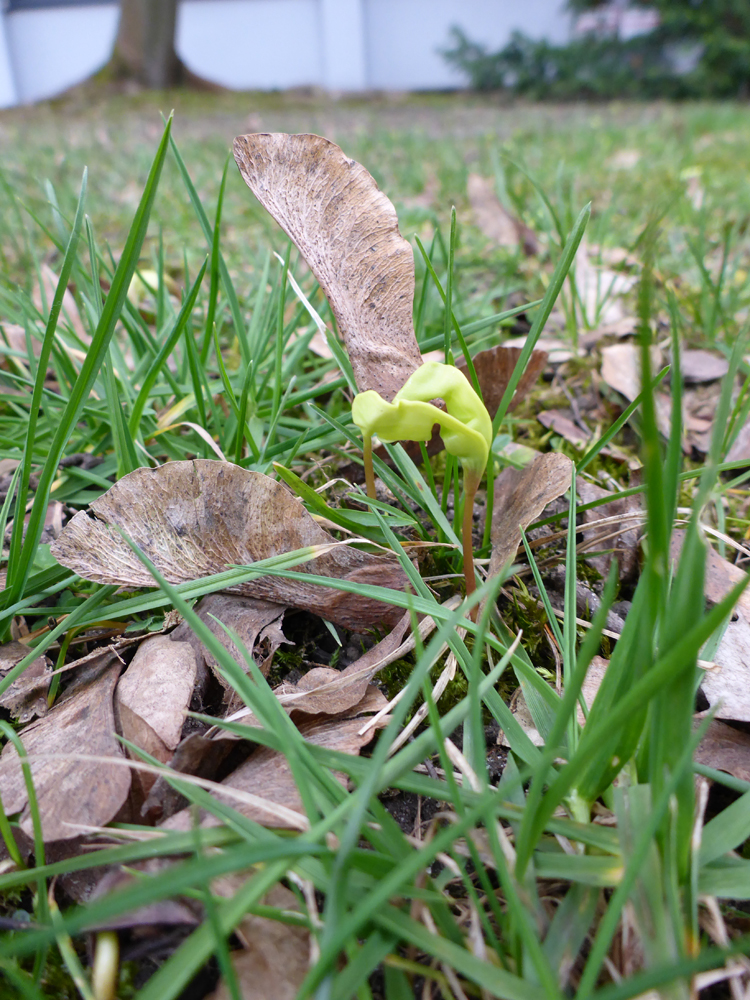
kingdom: Plantae
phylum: Tracheophyta
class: Magnoliopsida
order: Sapindales
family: Sapindaceae
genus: Acer
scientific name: Acer platanoides
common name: Norway maple
